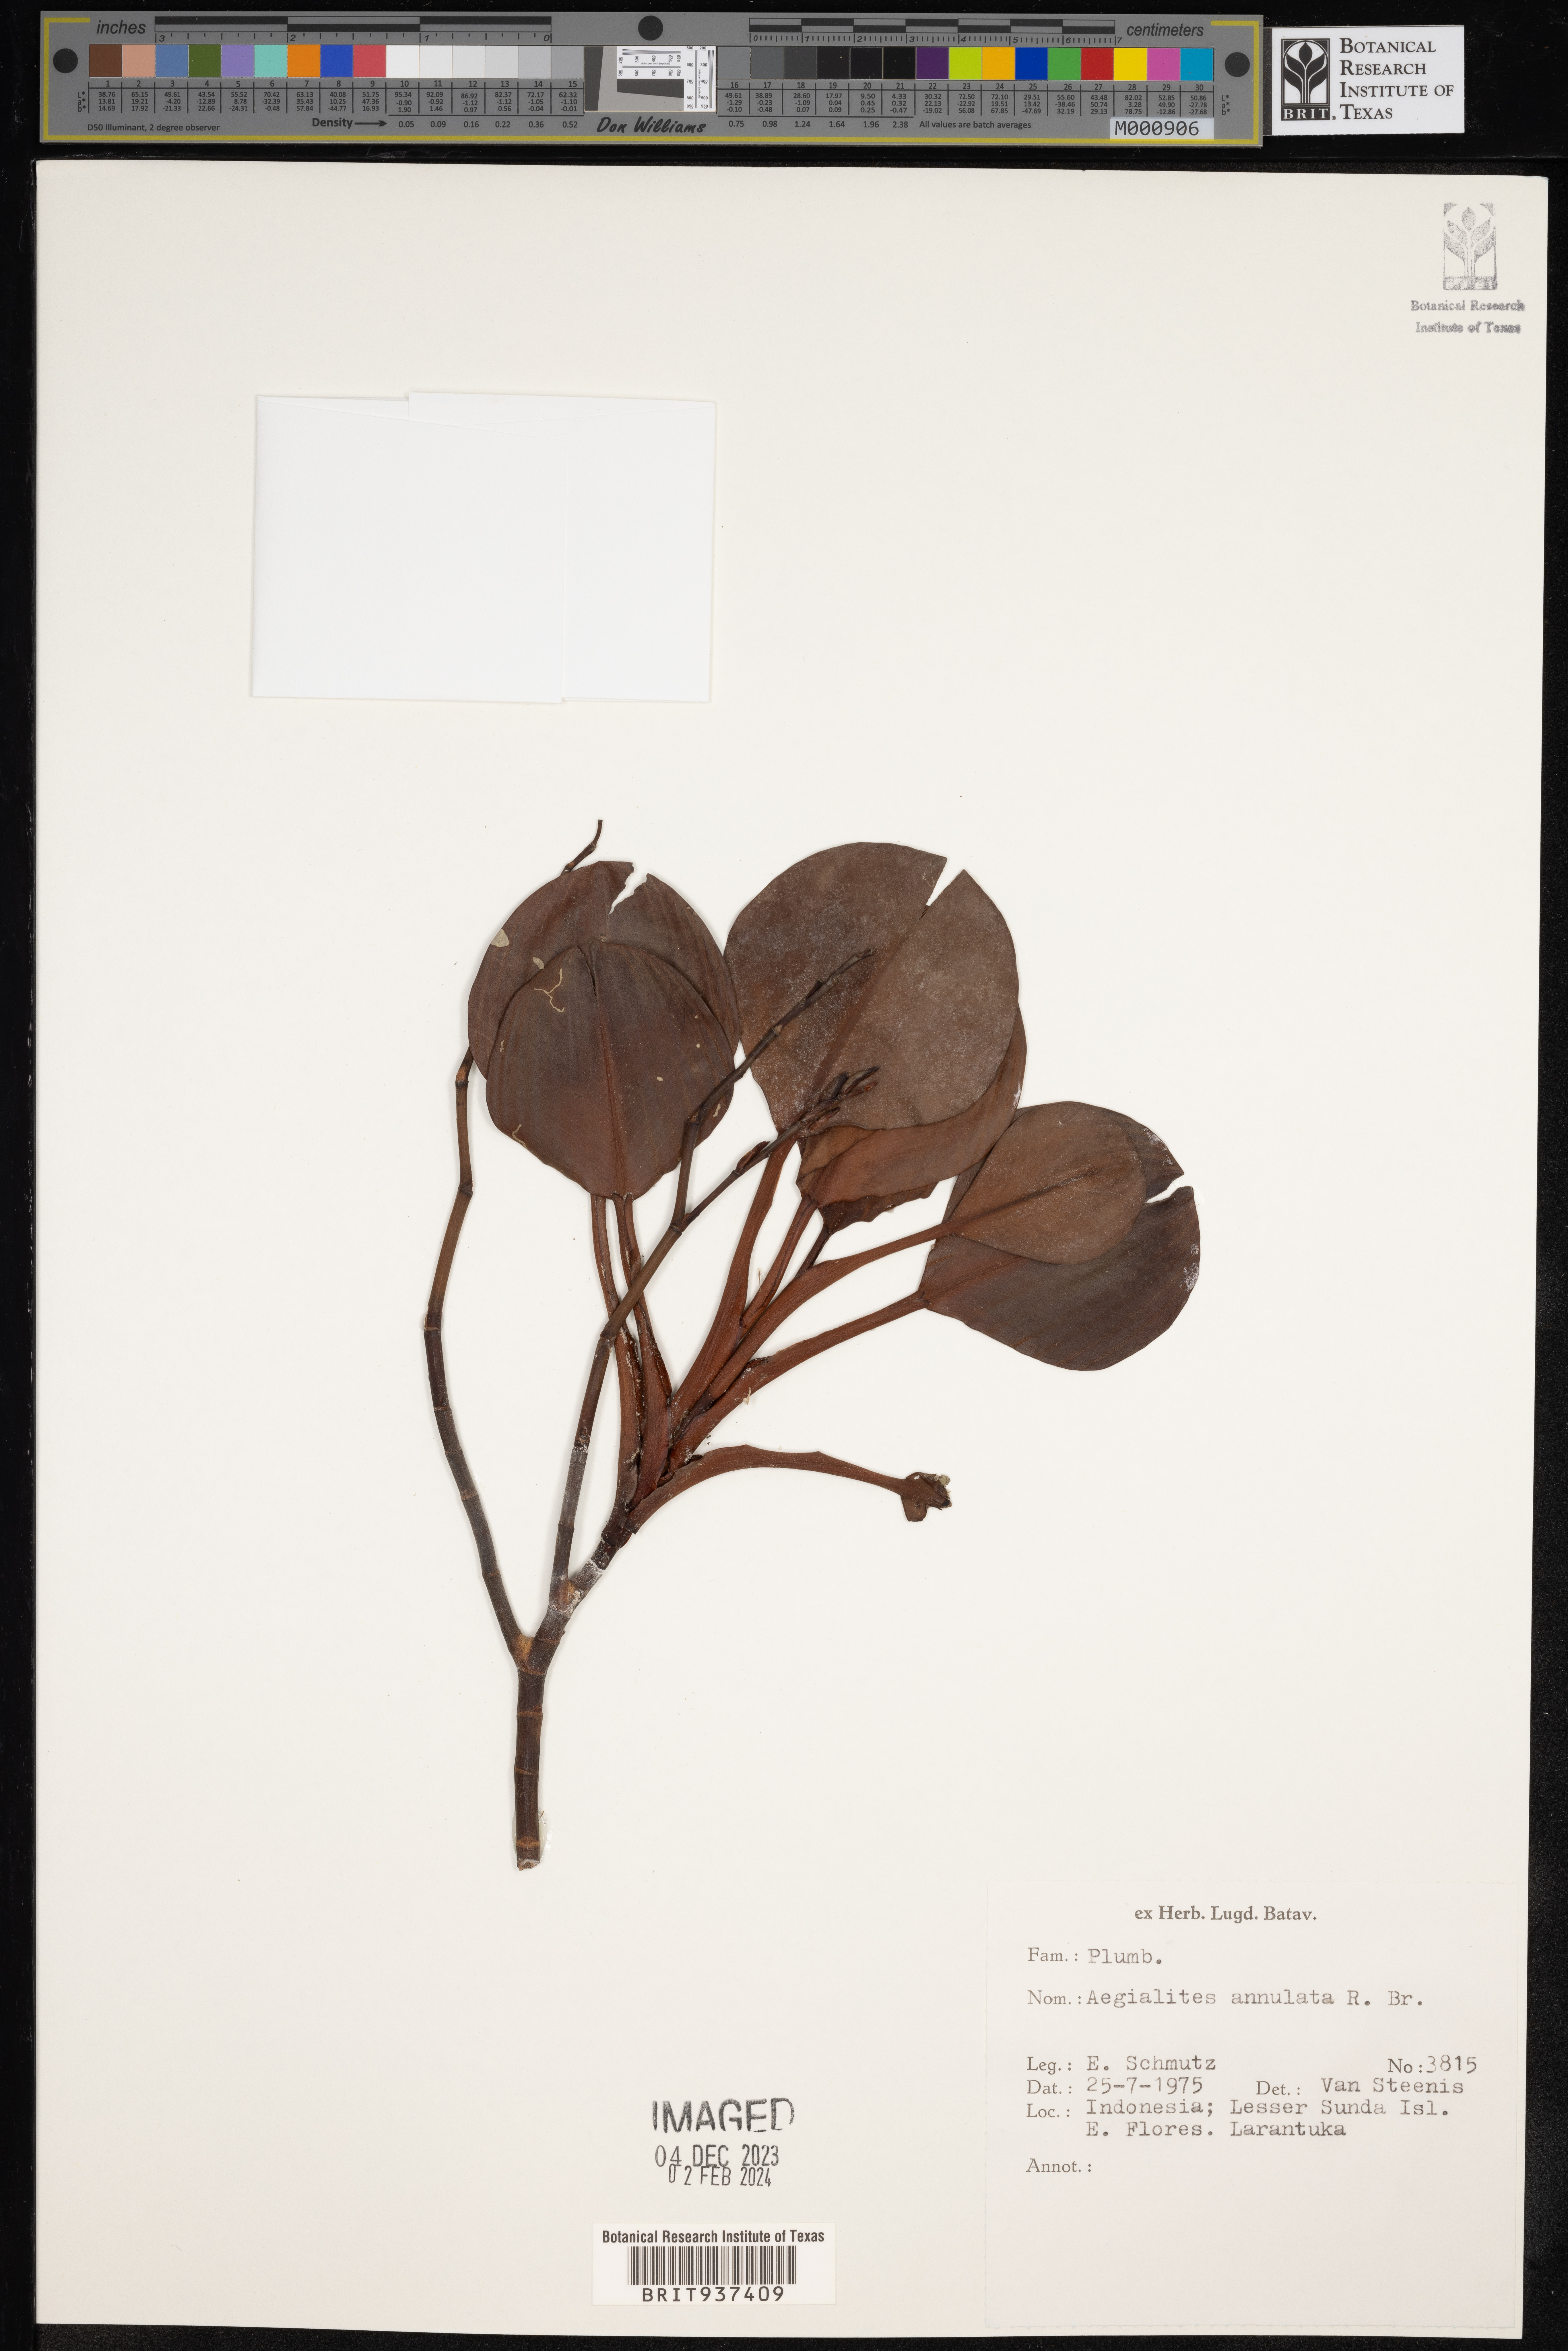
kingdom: Plantae
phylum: Tracheophyta
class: Magnoliopsida
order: Caryophyllales
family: Plumbaginaceae
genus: Aegialitis
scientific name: Aegialitis
